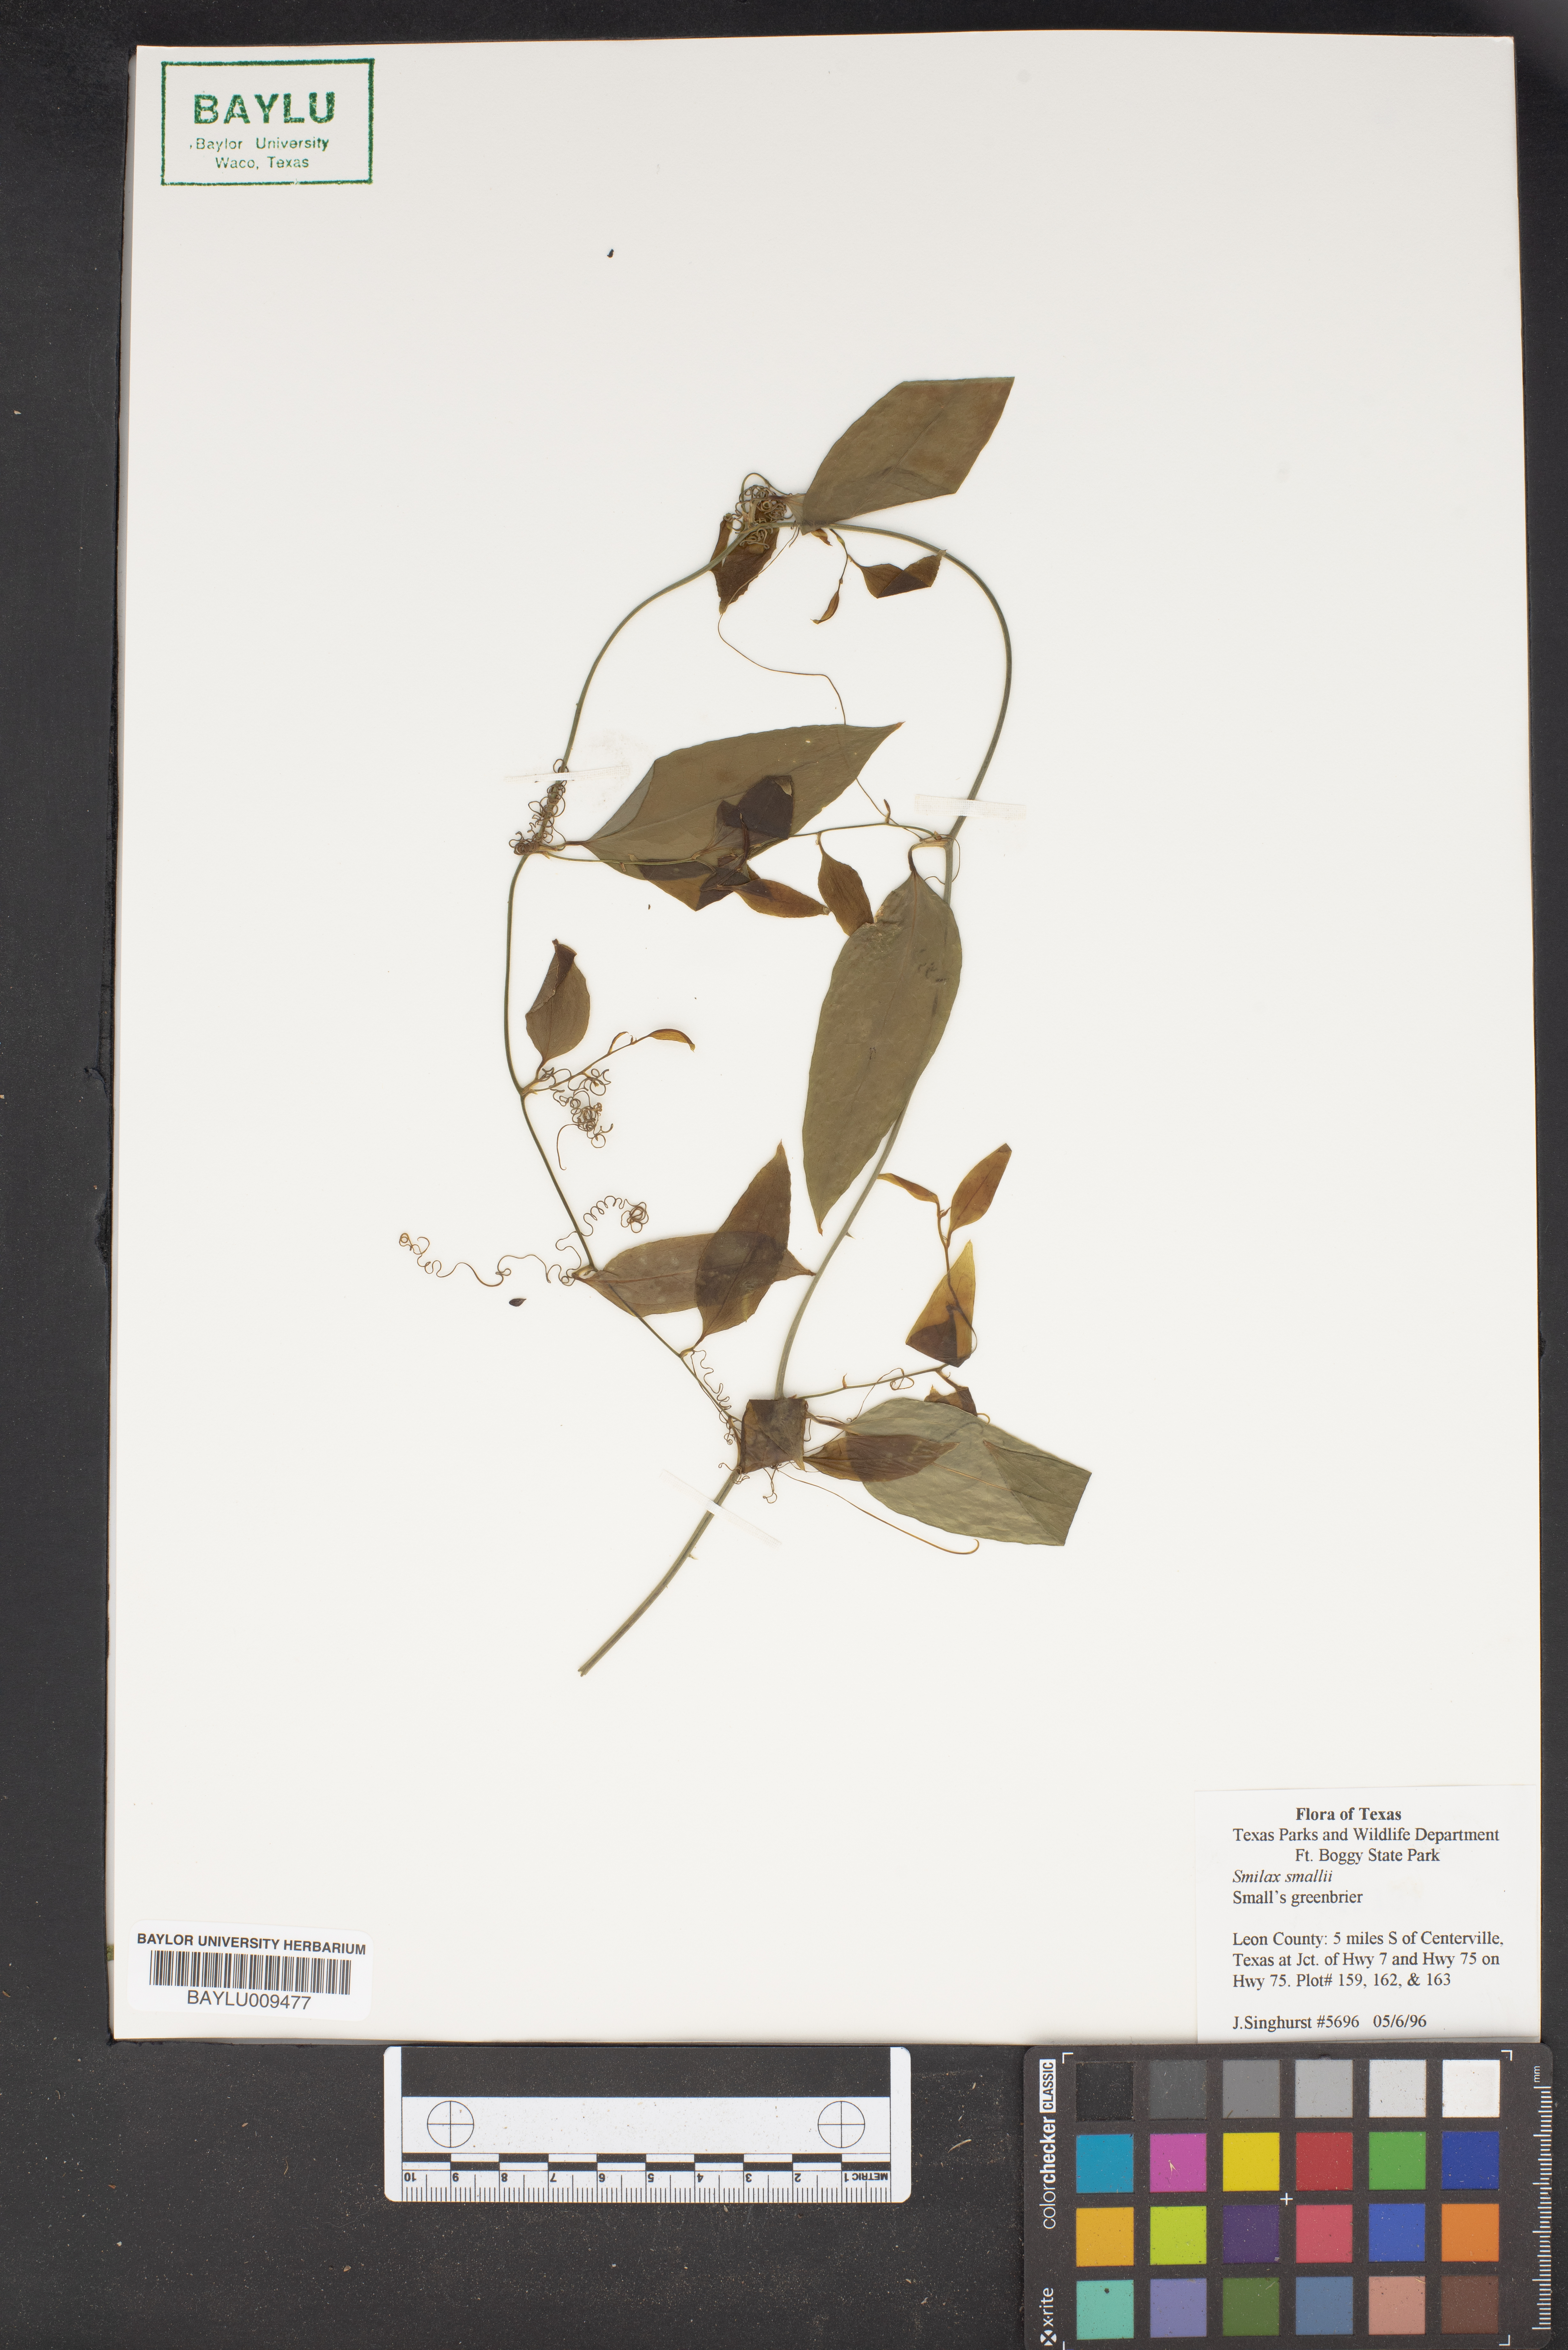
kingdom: Plantae
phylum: Tracheophyta
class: Liliopsida
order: Liliales
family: Smilacaceae
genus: Smilax
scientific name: Smilax maritima
